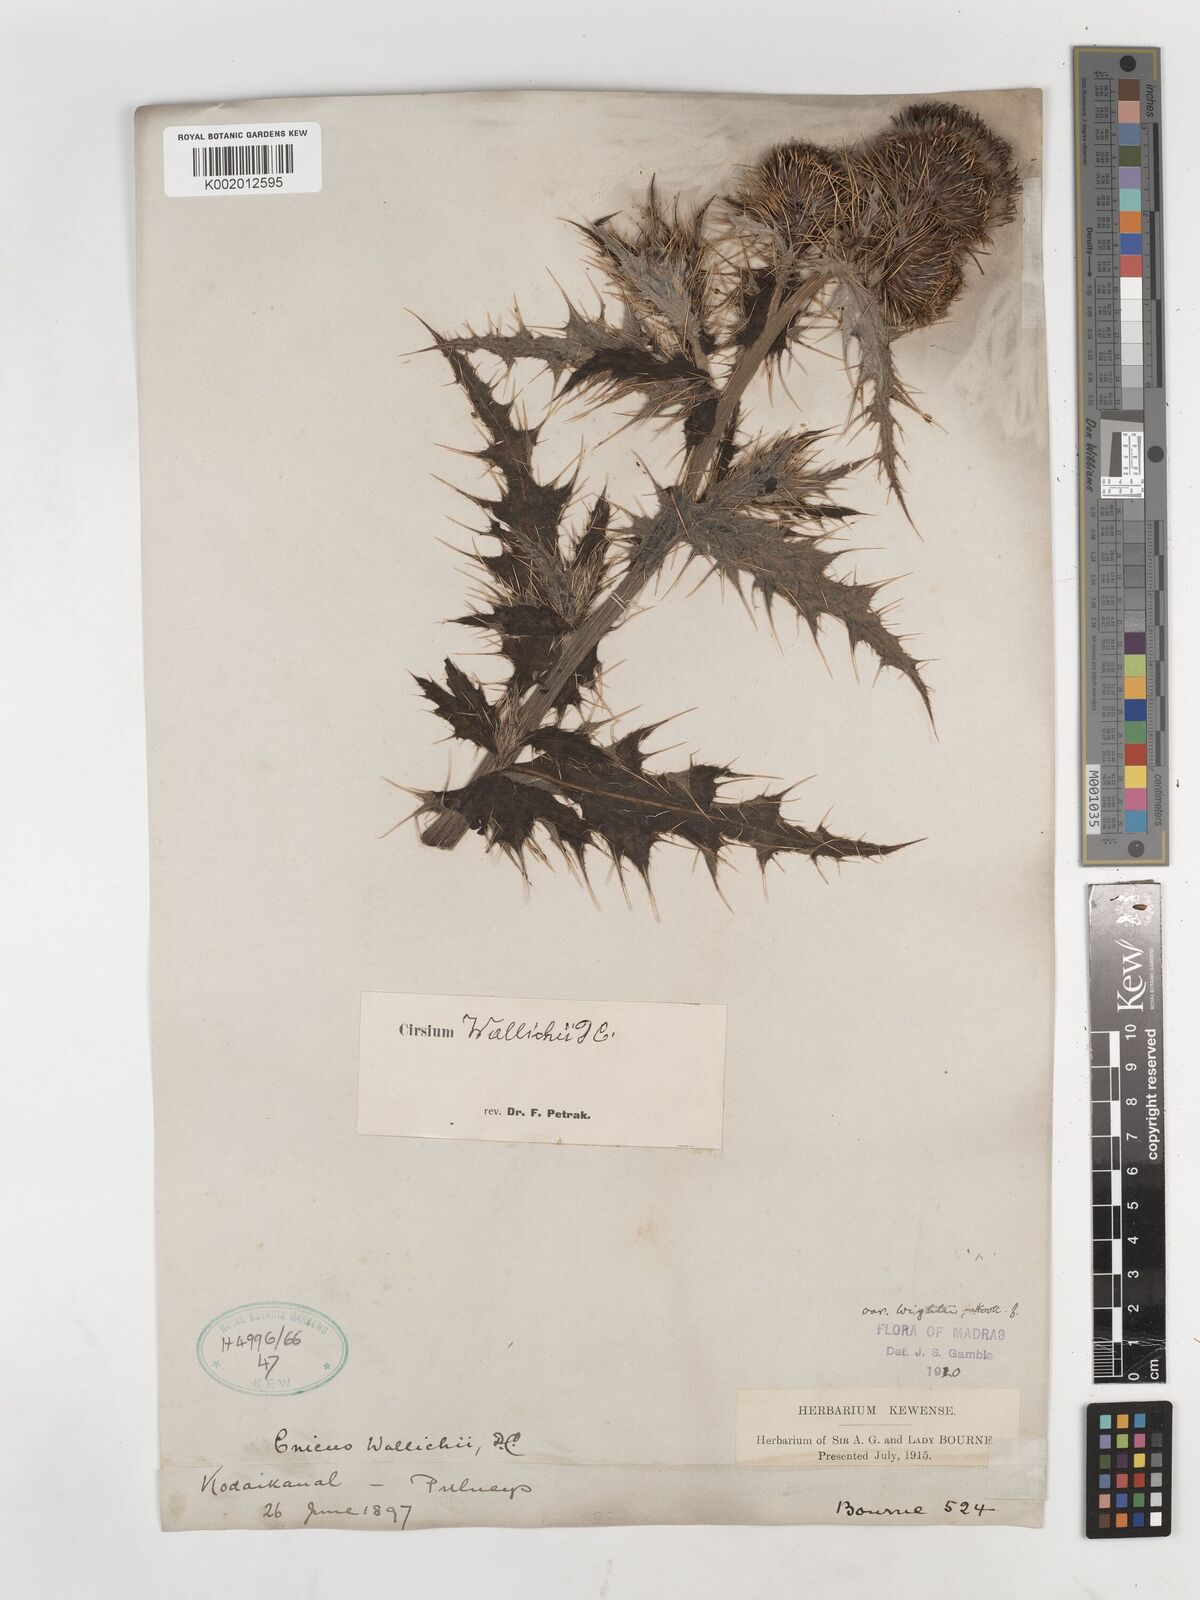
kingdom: Plantae
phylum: Tracheophyta
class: Magnoliopsida
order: Asterales
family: Asteraceae
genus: Cirsium
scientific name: Cirsium wallichii
